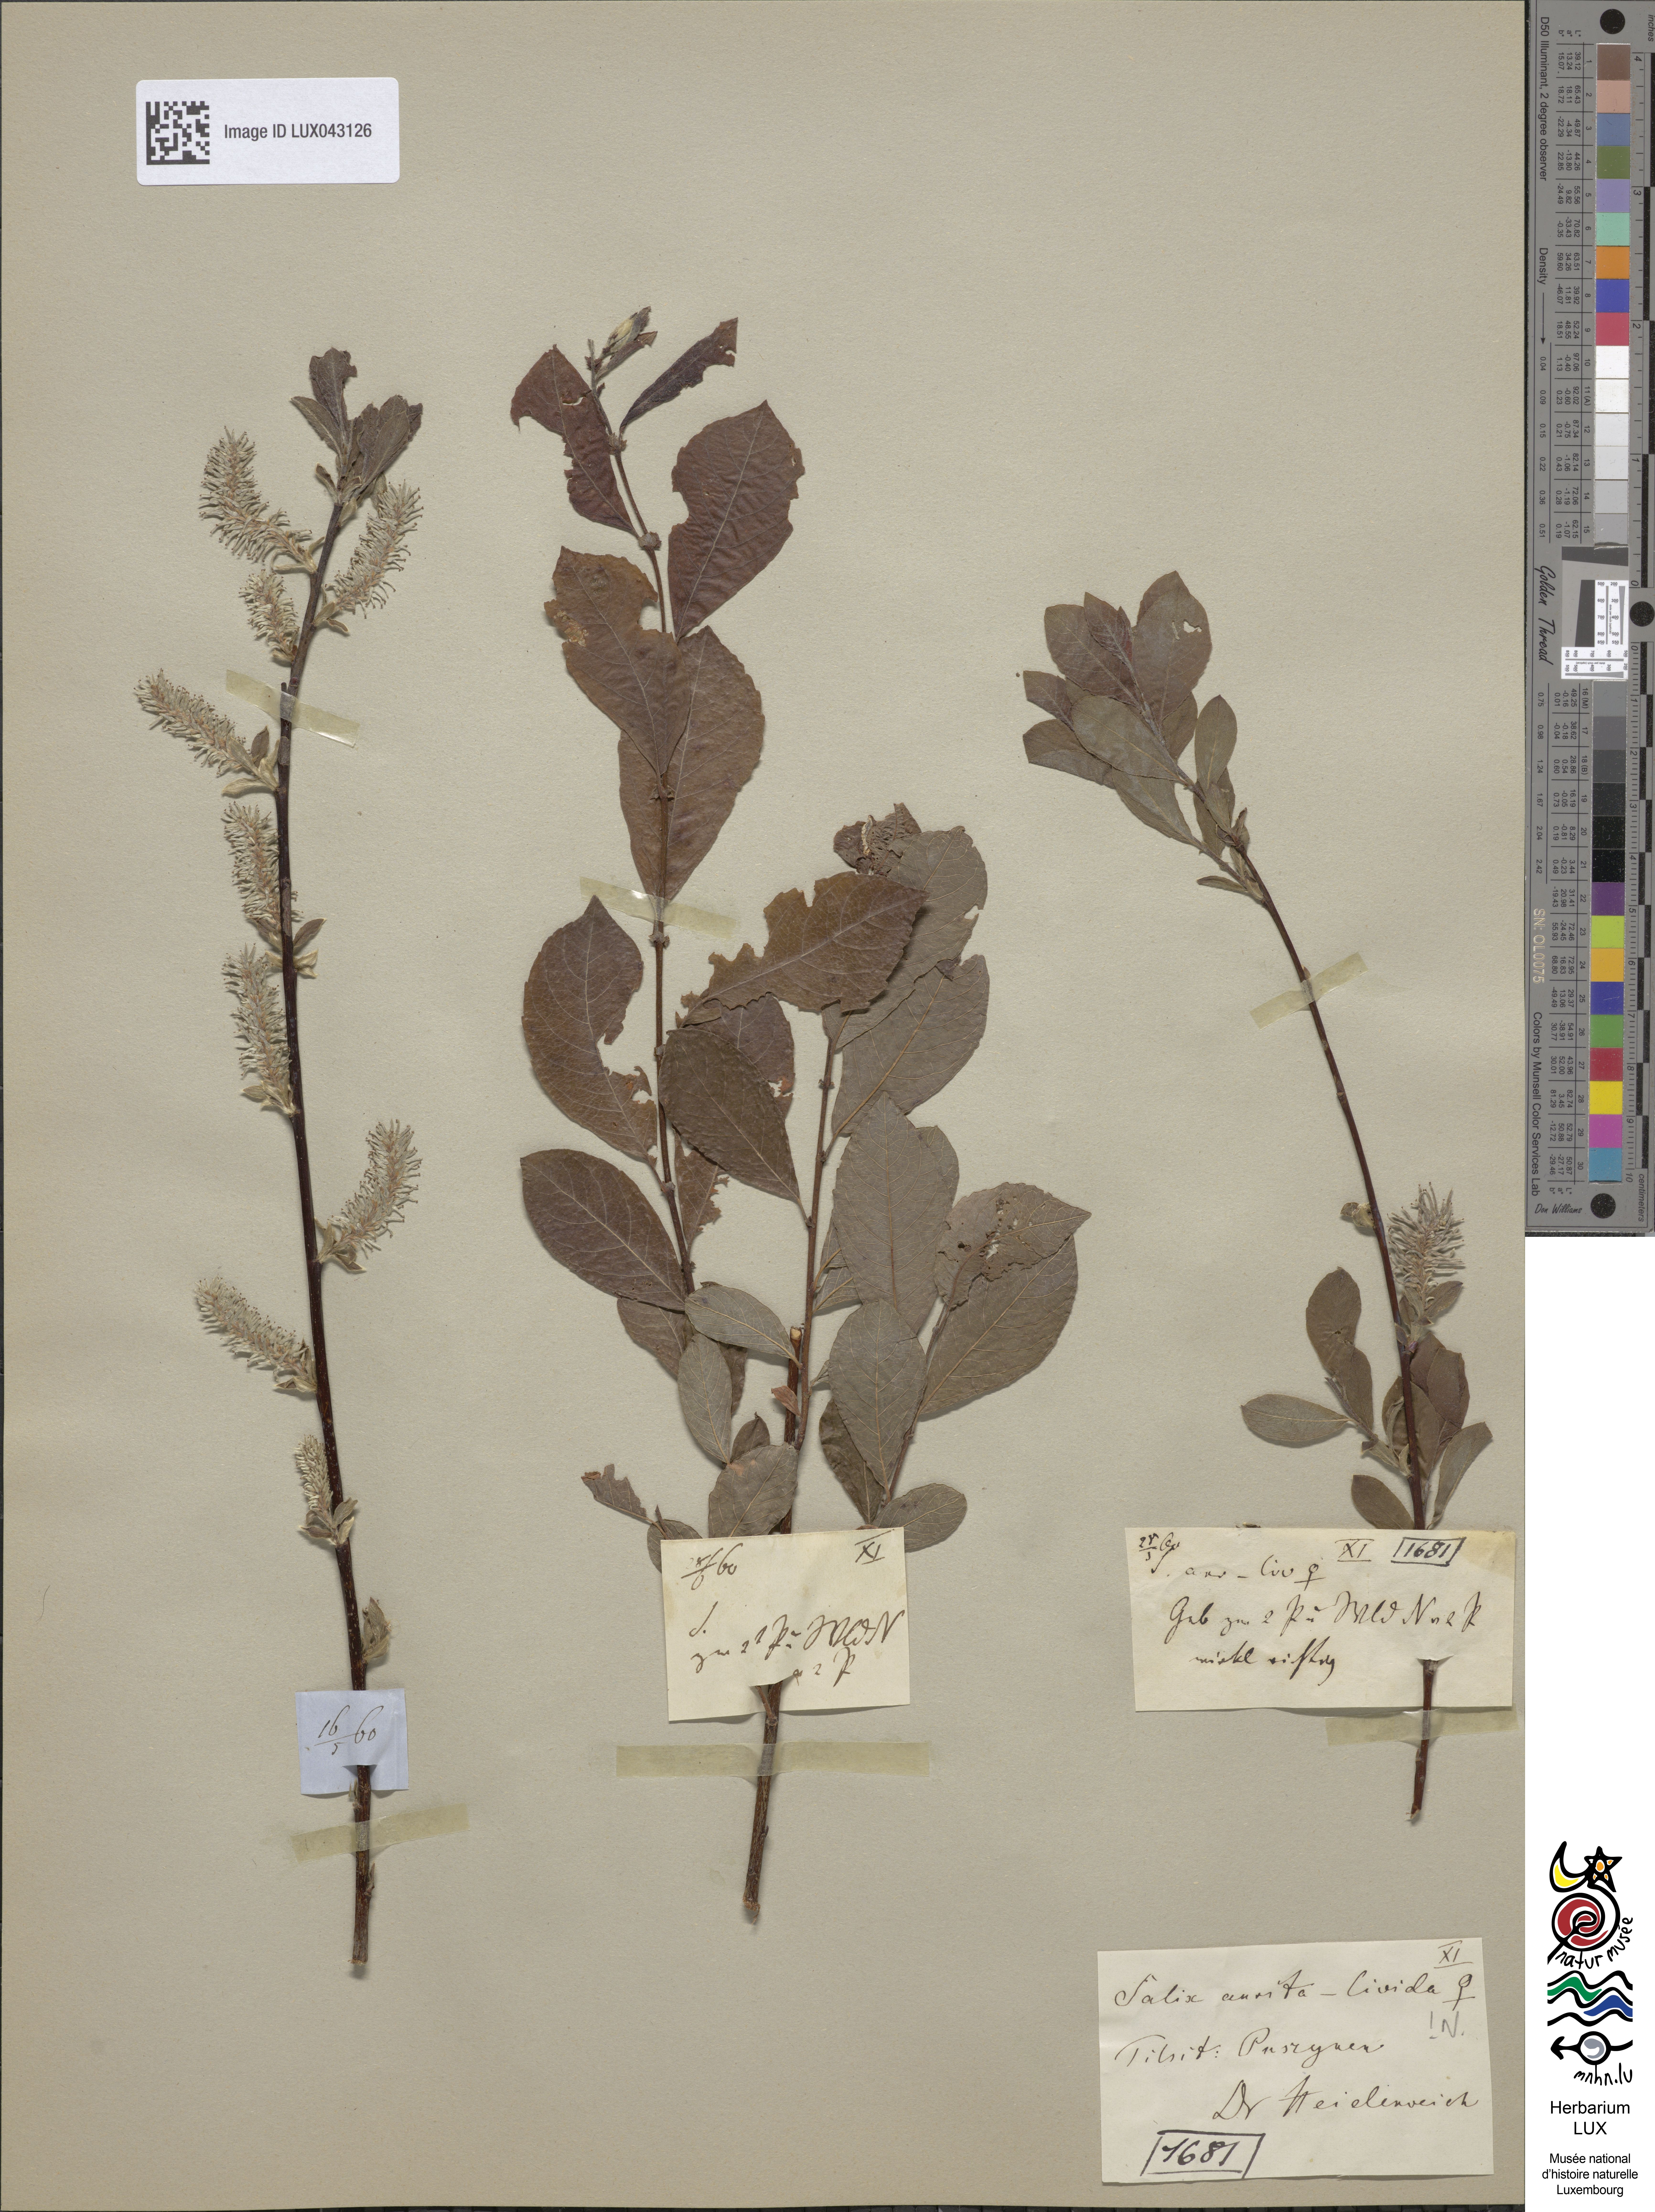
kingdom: Plantae
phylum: Tracheophyta
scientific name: Tracheophyta
